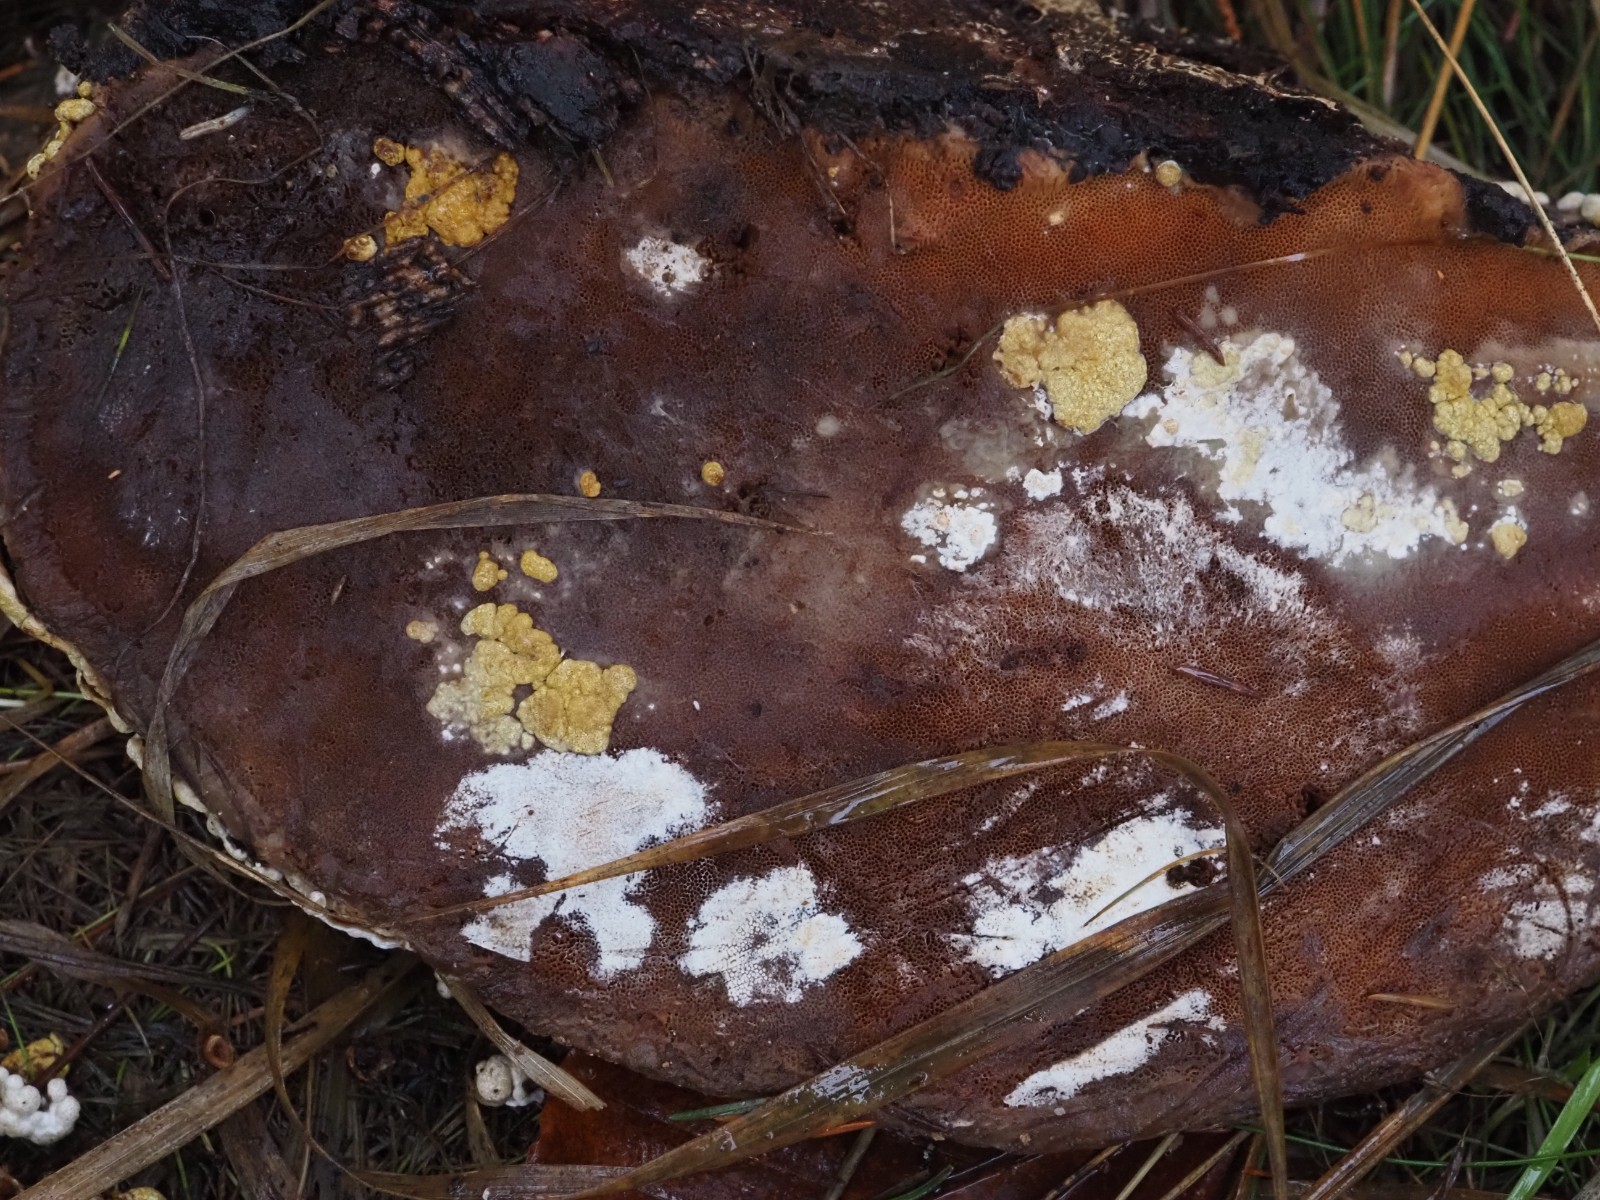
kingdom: Fungi
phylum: Ascomycota
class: Sordariomycetes
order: Hypocreales
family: Hypocreaceae
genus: Trichoderma
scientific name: Trichoderma
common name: kødkerne
